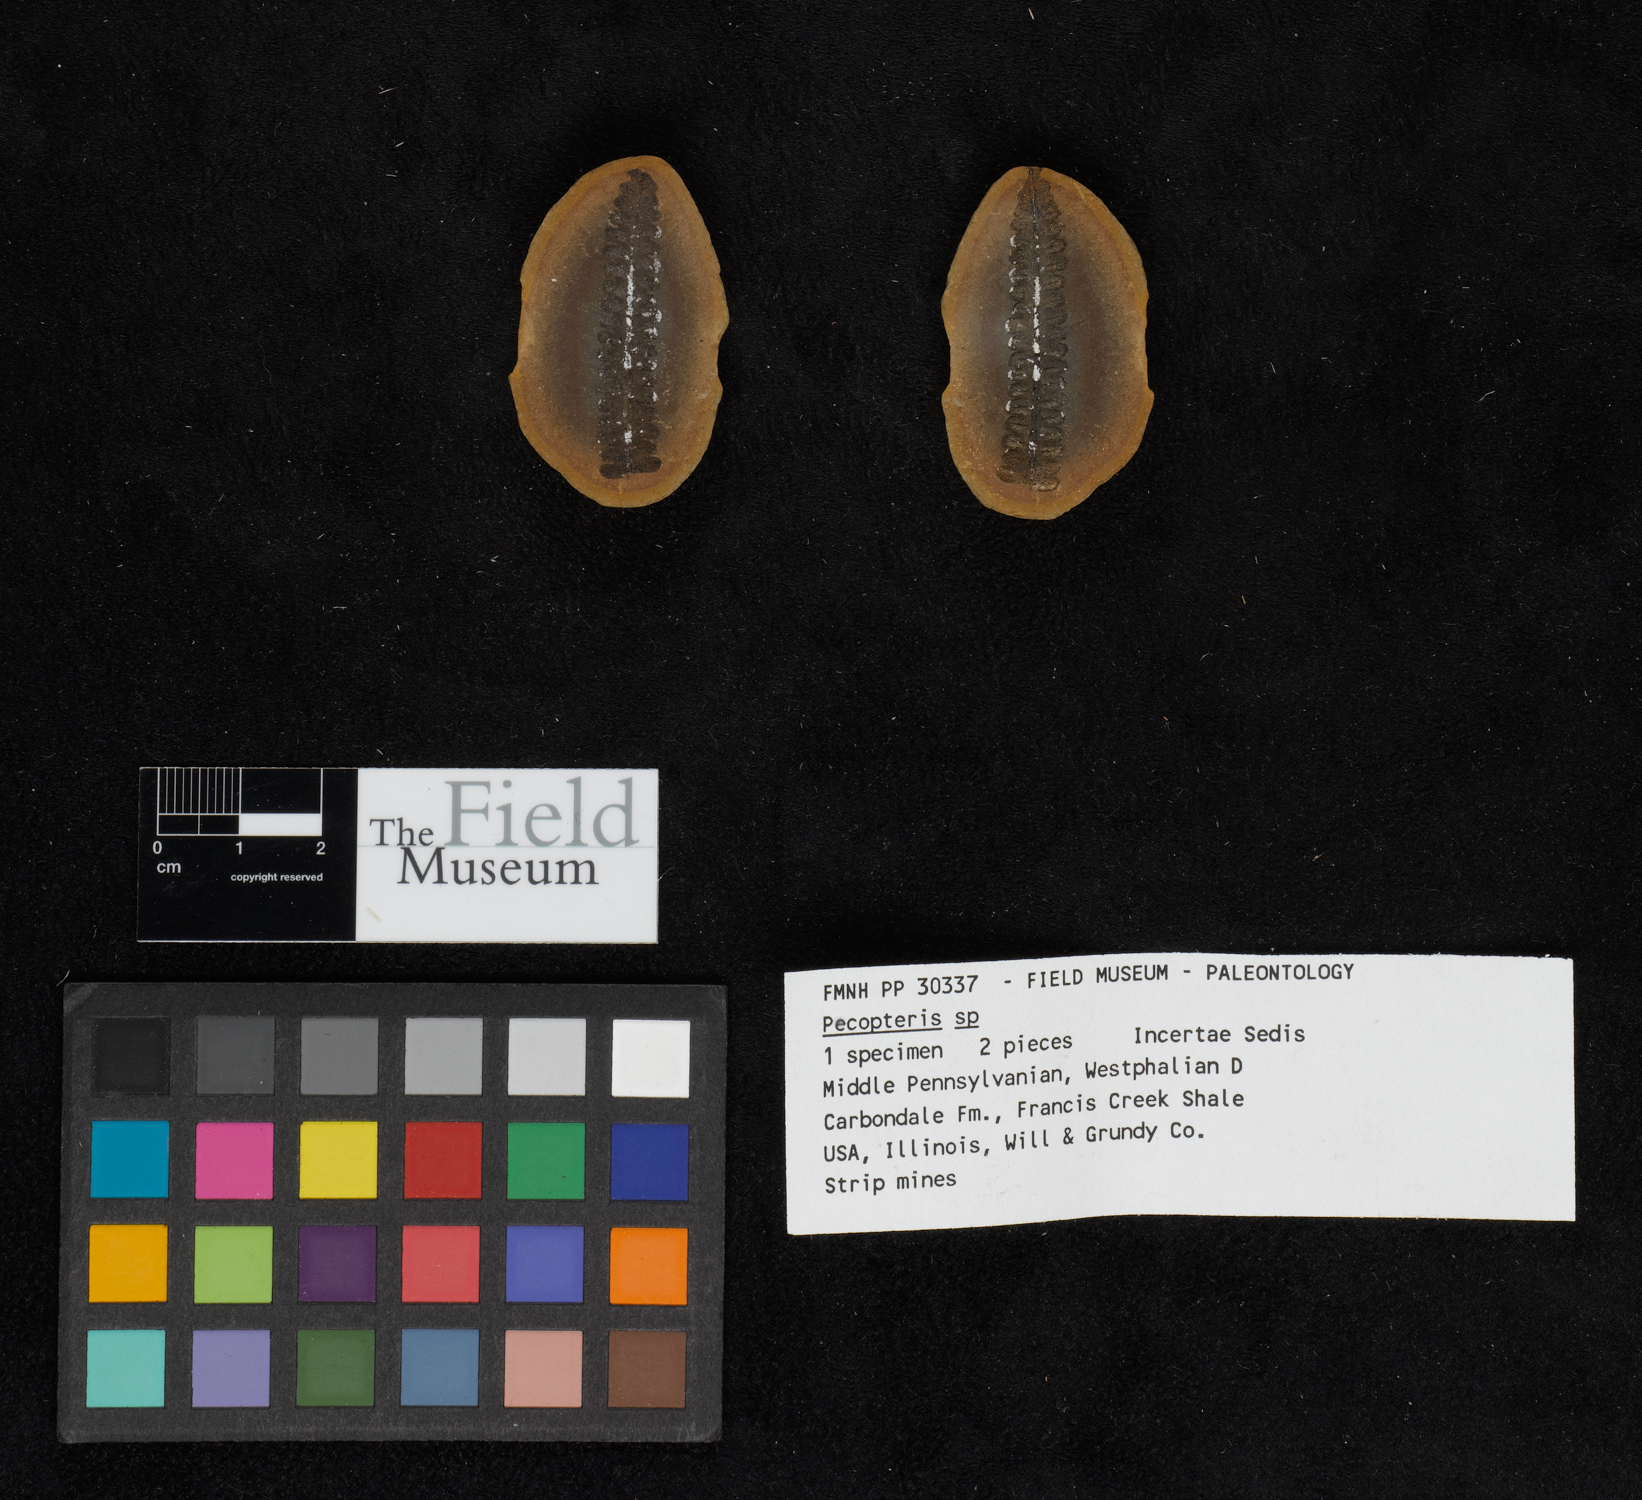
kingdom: Plantae
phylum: Tracheophyta
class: Polypodiopsida
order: Marattiales
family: Asterothecaceae
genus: Pecopteris
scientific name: Pecopteris
